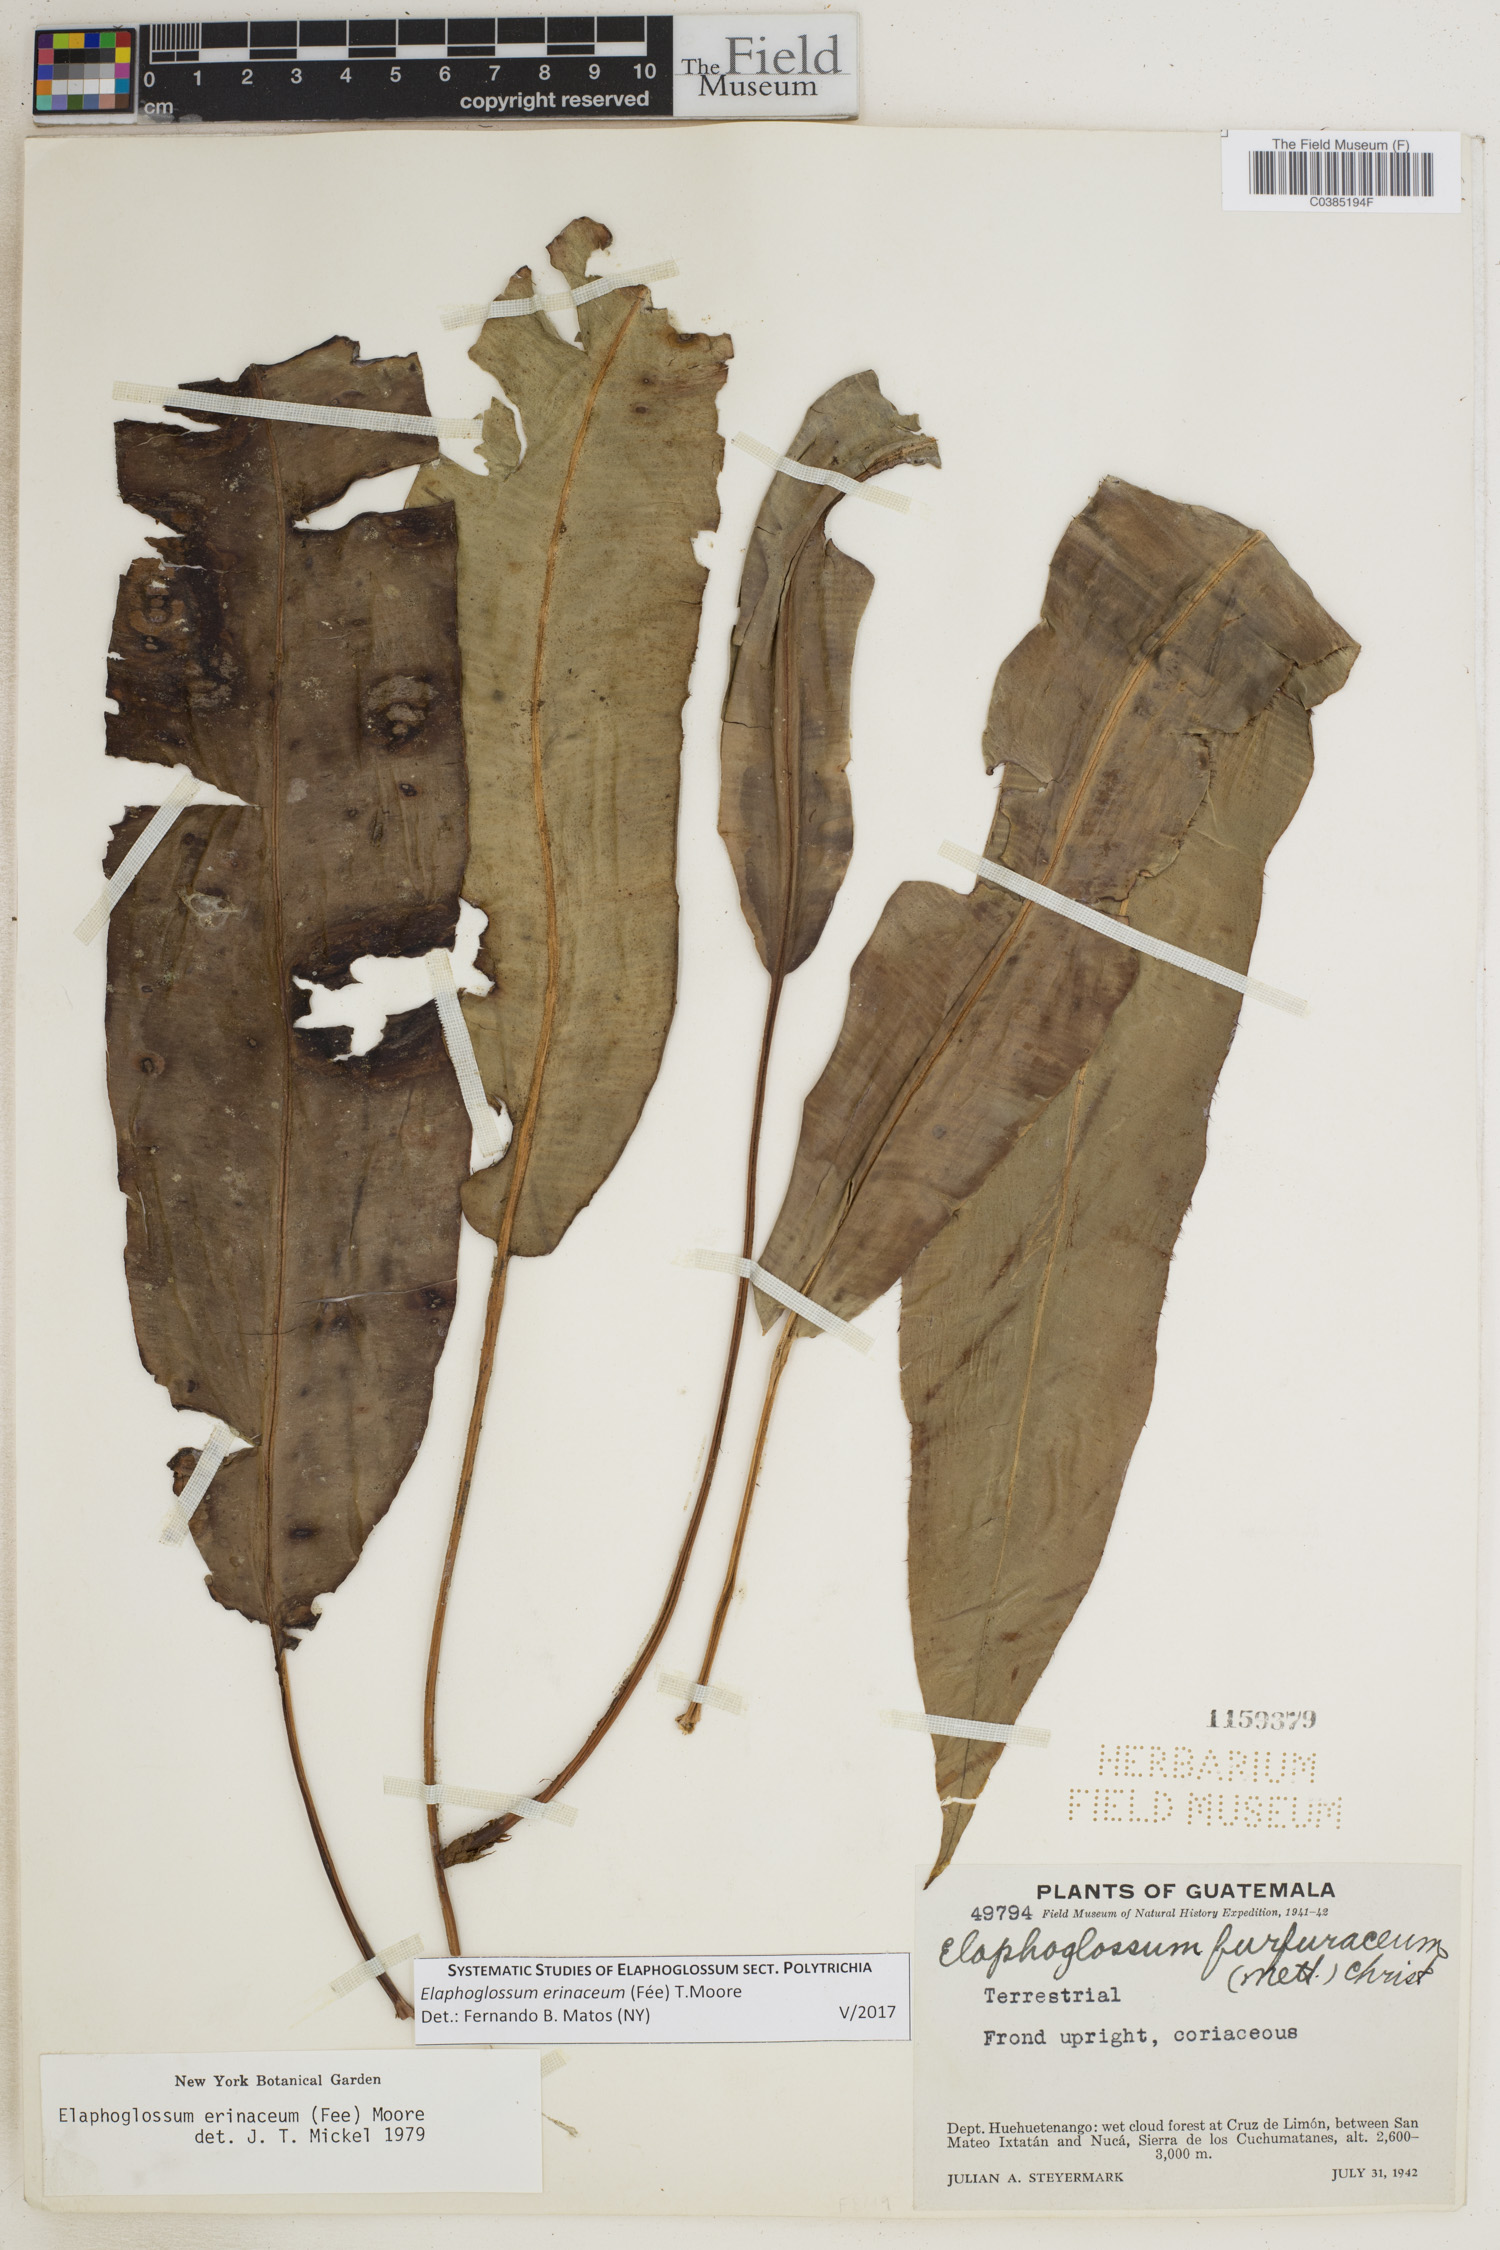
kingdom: Plantae
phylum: Tracheophyta
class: Polypodiopsida
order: Polypodiales
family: Dryopteridaceae
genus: Elaphoglossum
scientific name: Elaphoglossum erinaceum
